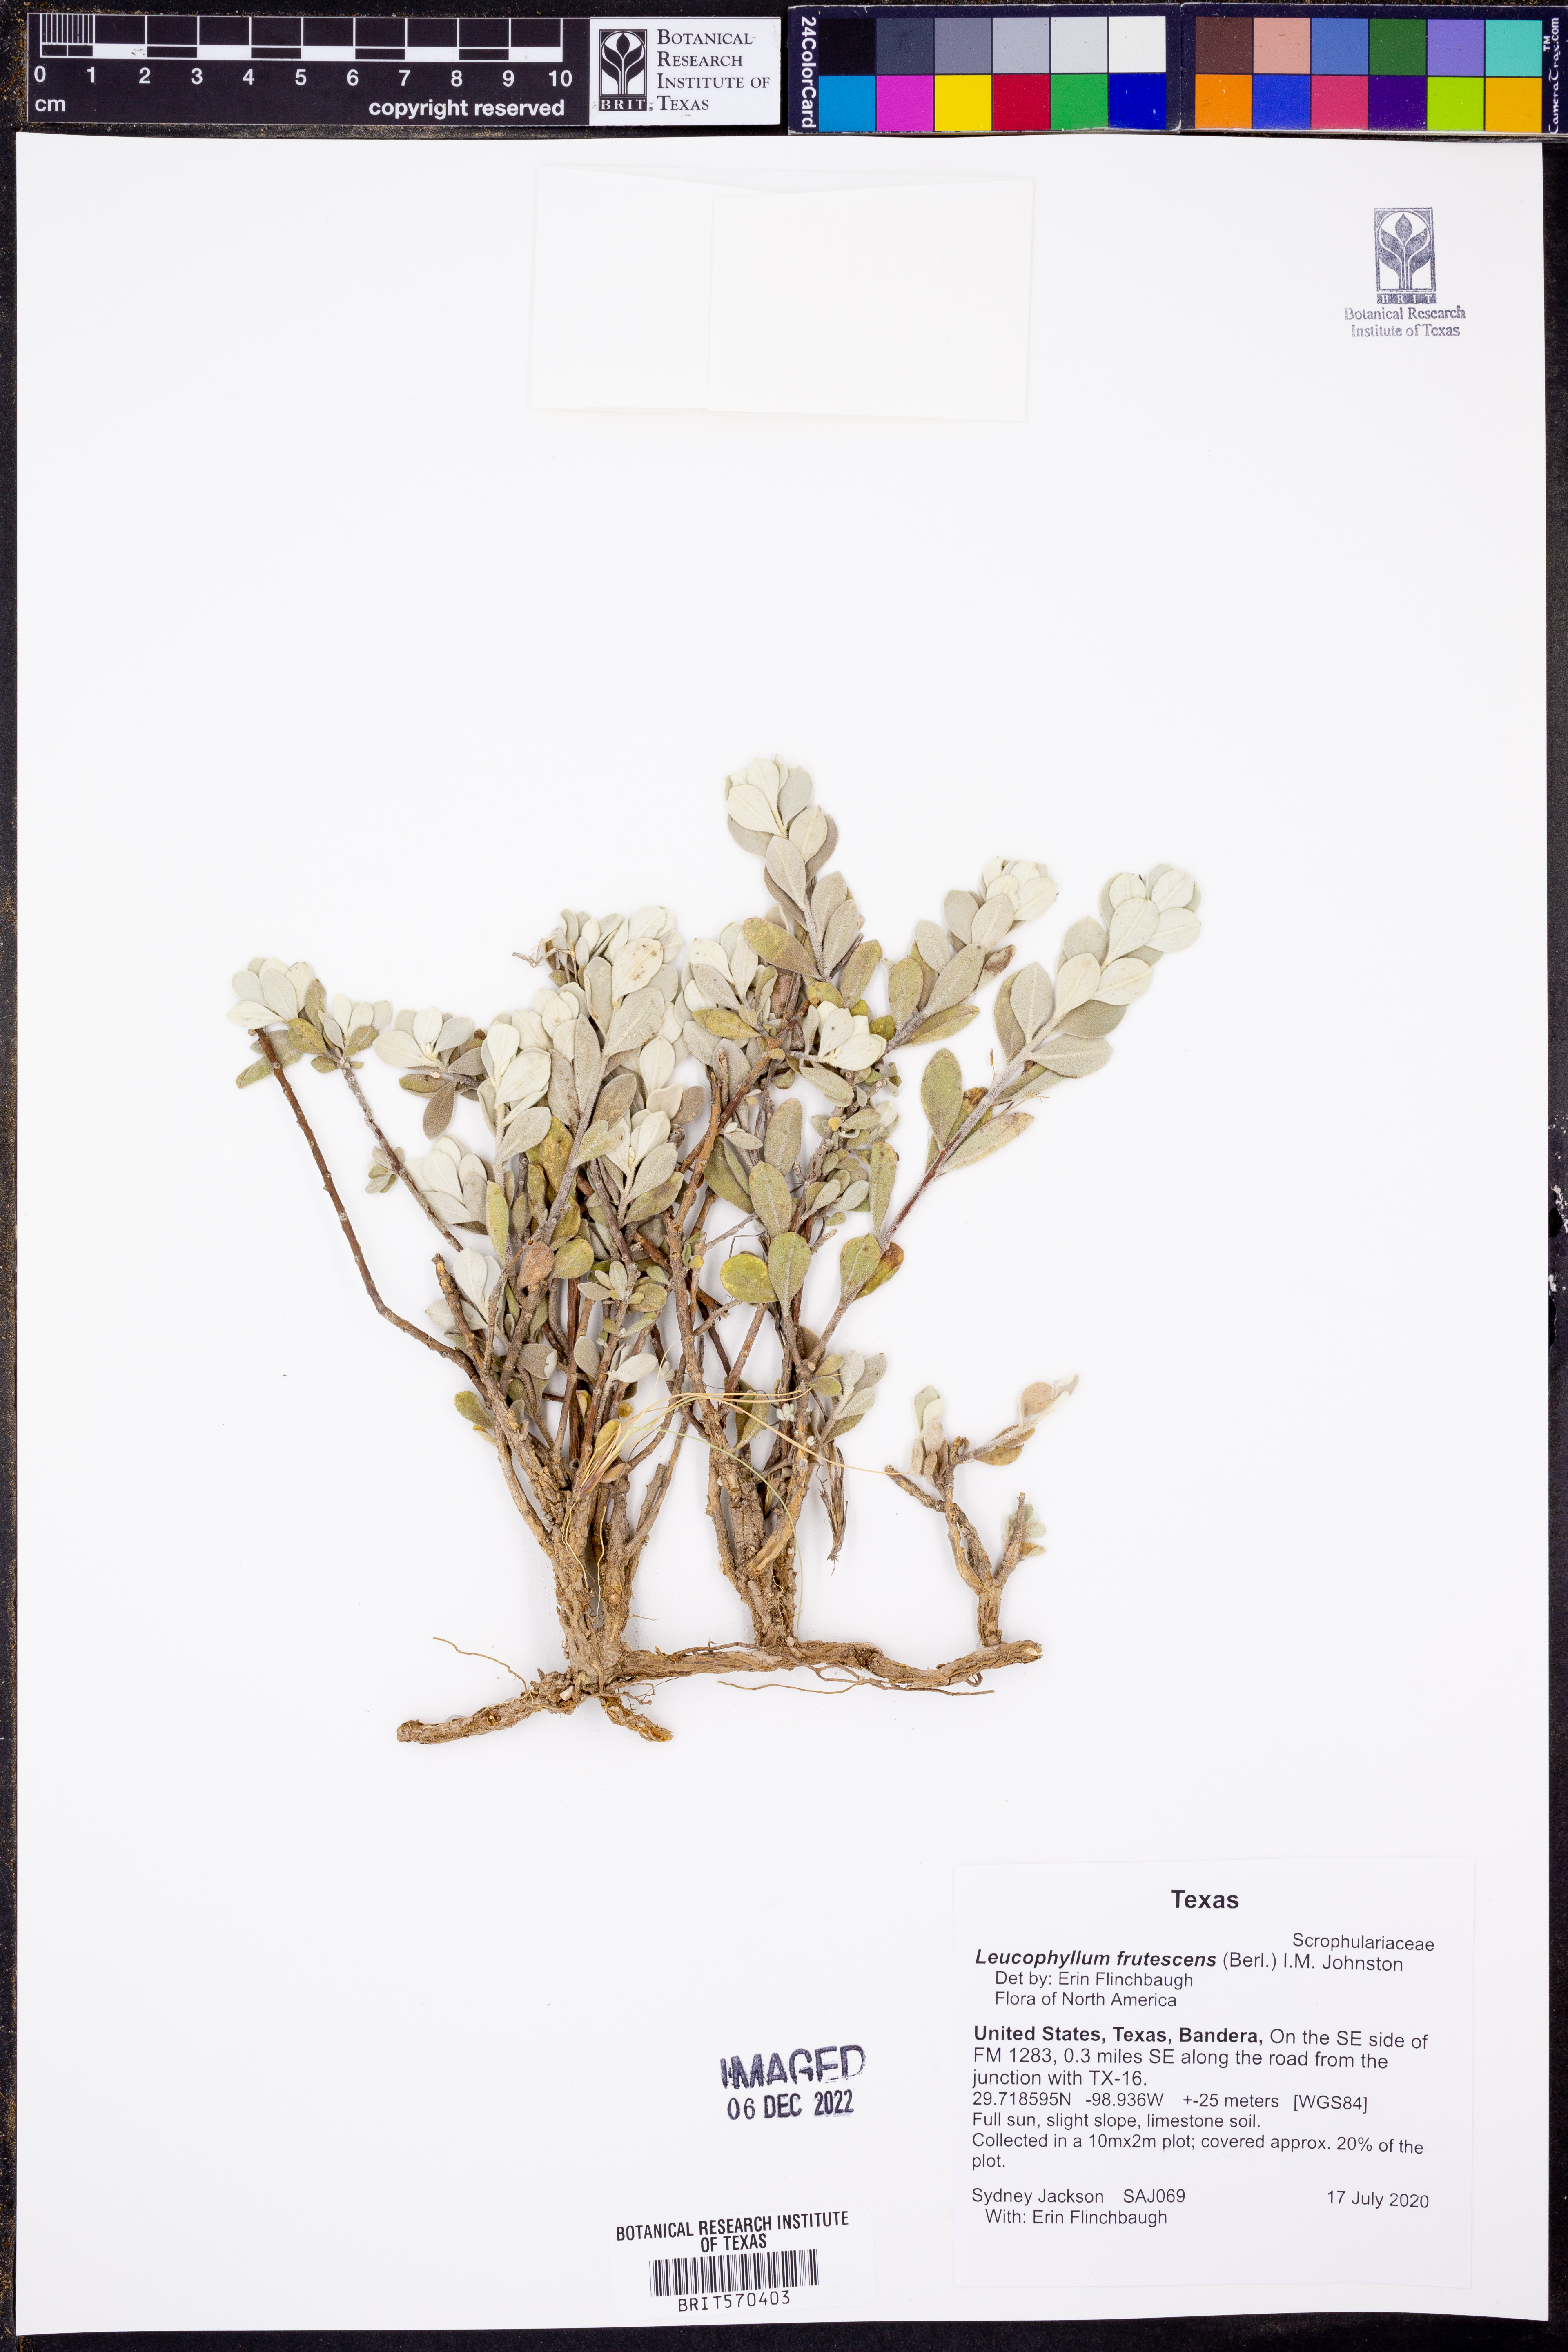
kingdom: Plantae
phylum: Tracheophyta
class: Magnoliopsida
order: Lamiales
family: Scrophulariaceae
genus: Leucophyllum
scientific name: Leucophyllum frutescens
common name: Texas silverleaf
